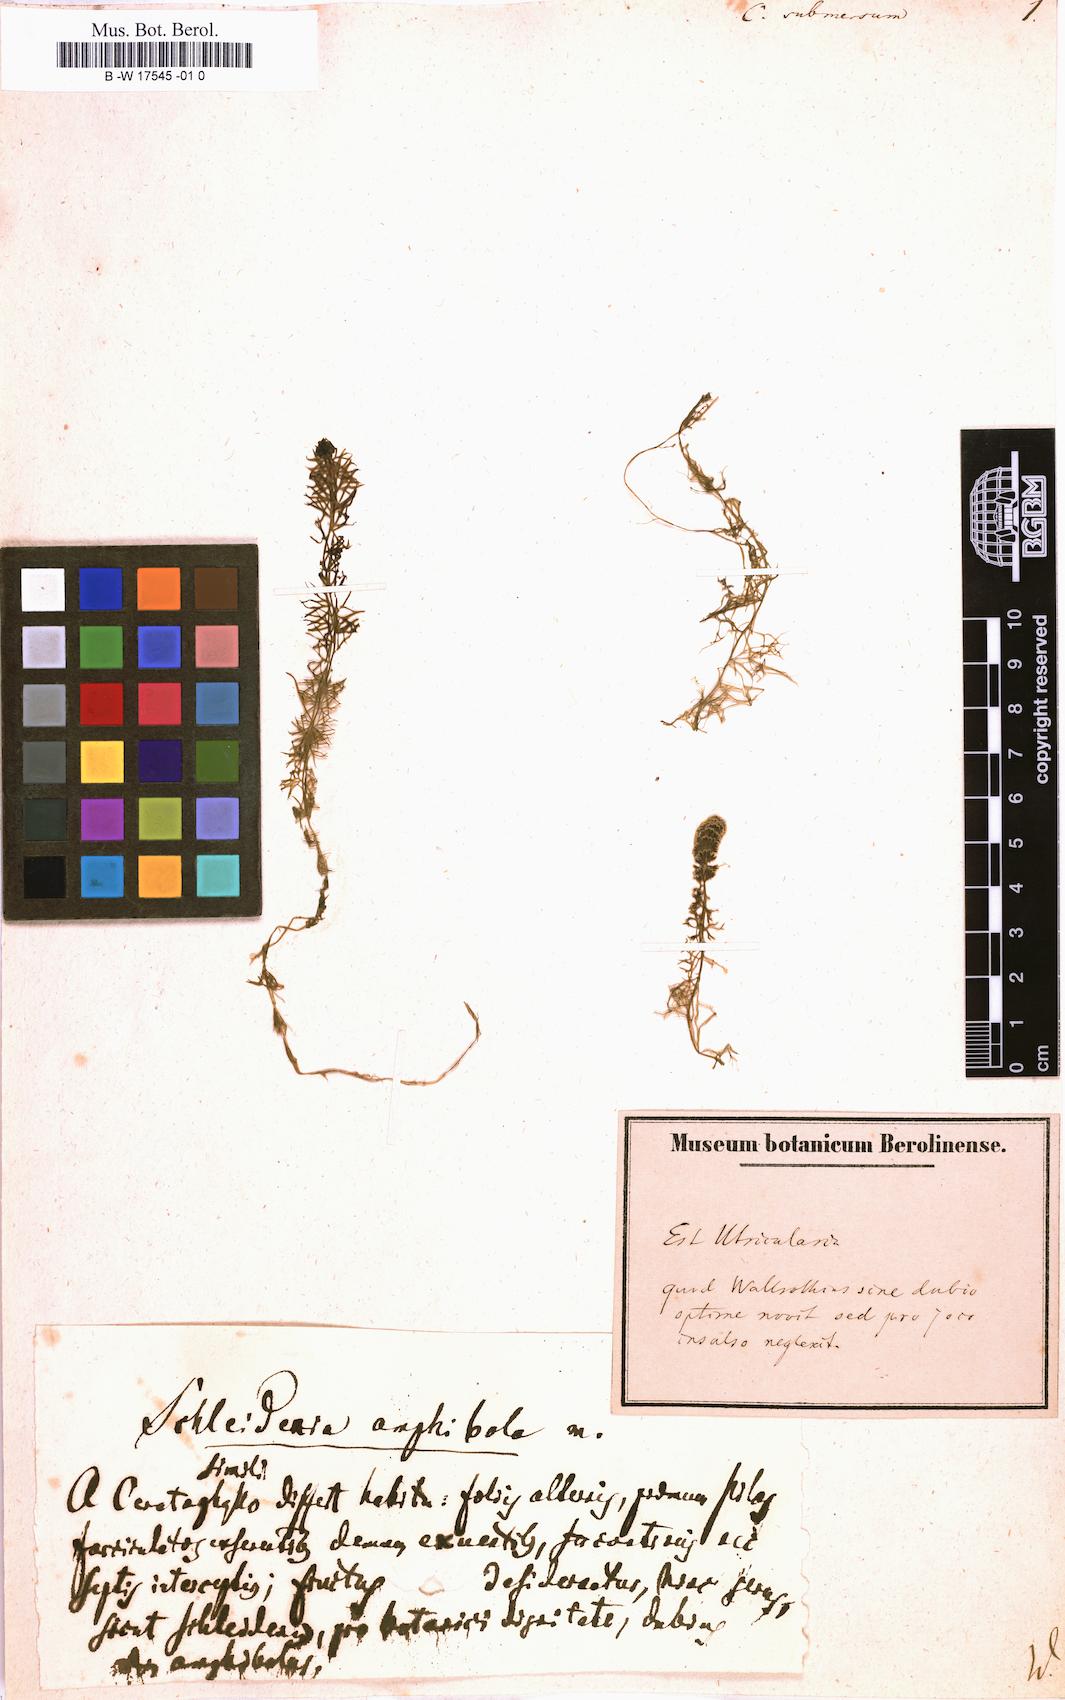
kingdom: Plantae
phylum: Tracheophyta
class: Magnoliopsida
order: Ceratophyllales
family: Ceratophyllaceae
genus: Ceratophyllum
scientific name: Ceratophyllum submersum
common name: Soft hornwort
